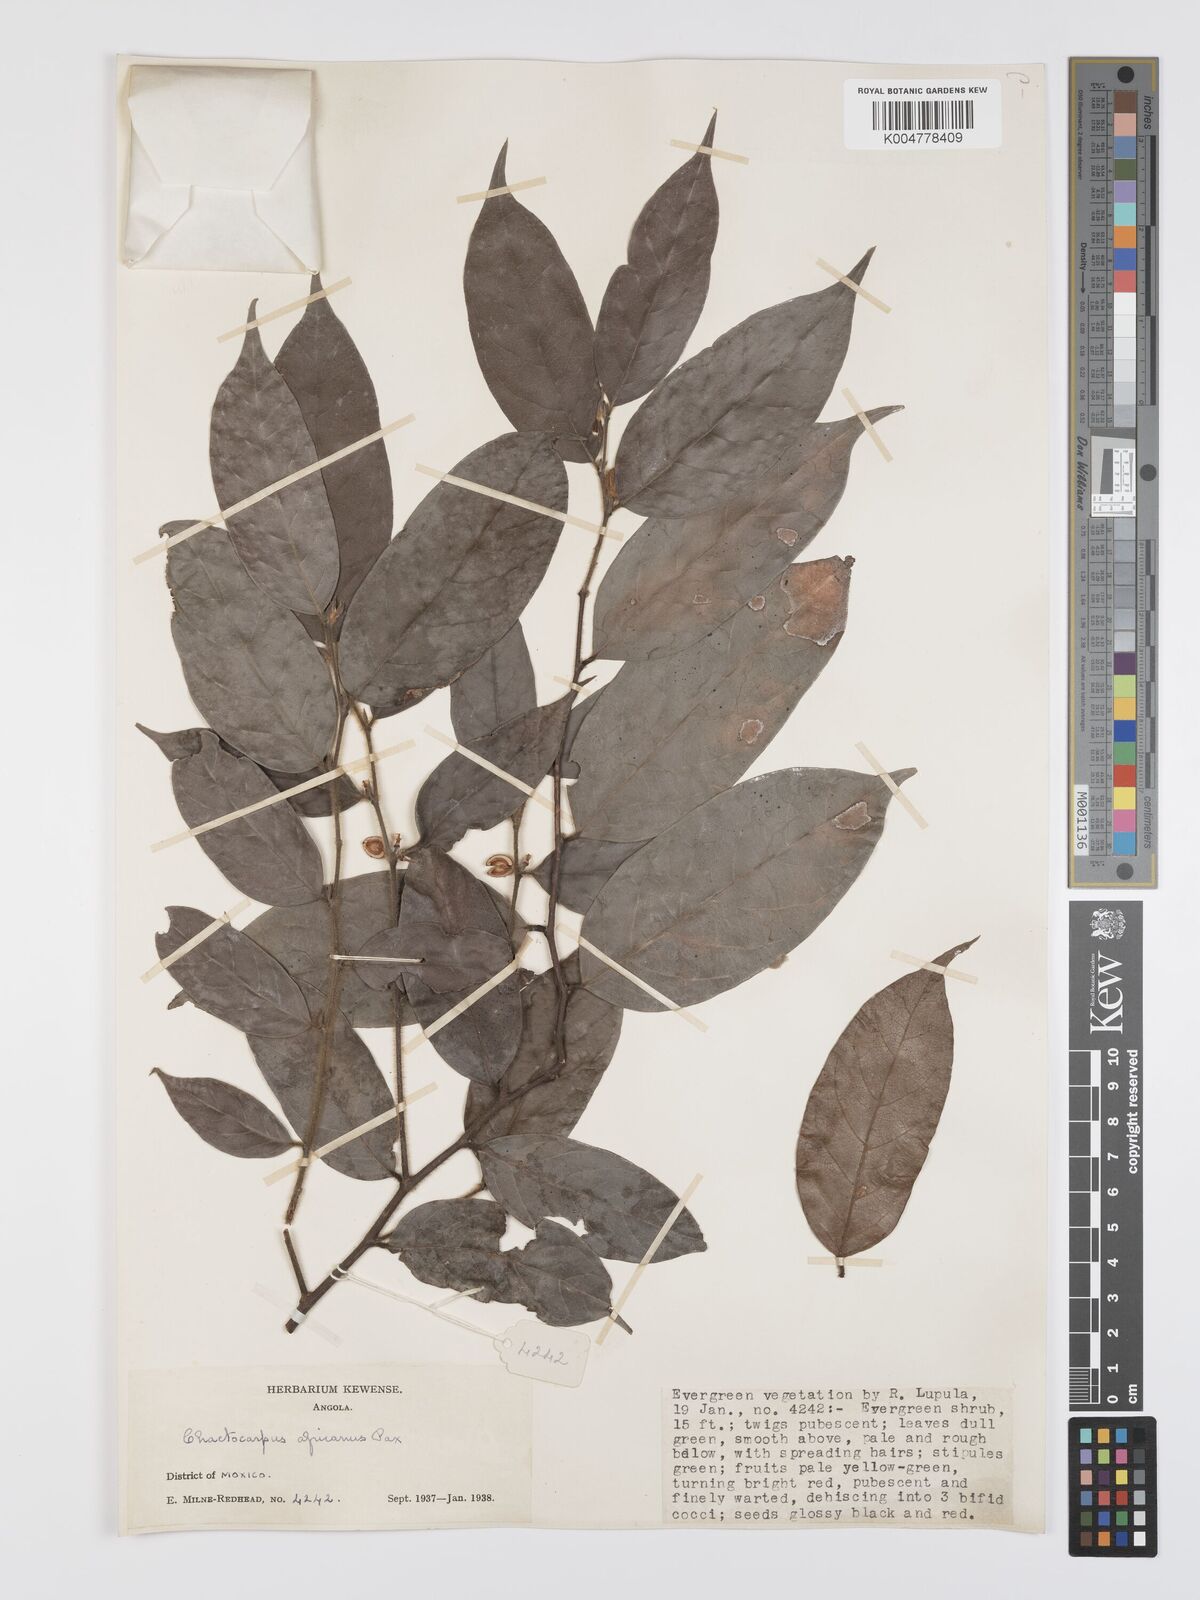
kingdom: Plantae
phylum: Tracheophyta
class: Magnoliopsida
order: Malpighiales
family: Peraceae
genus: Chaetocarpus
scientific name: Chaetocarpus africanus
